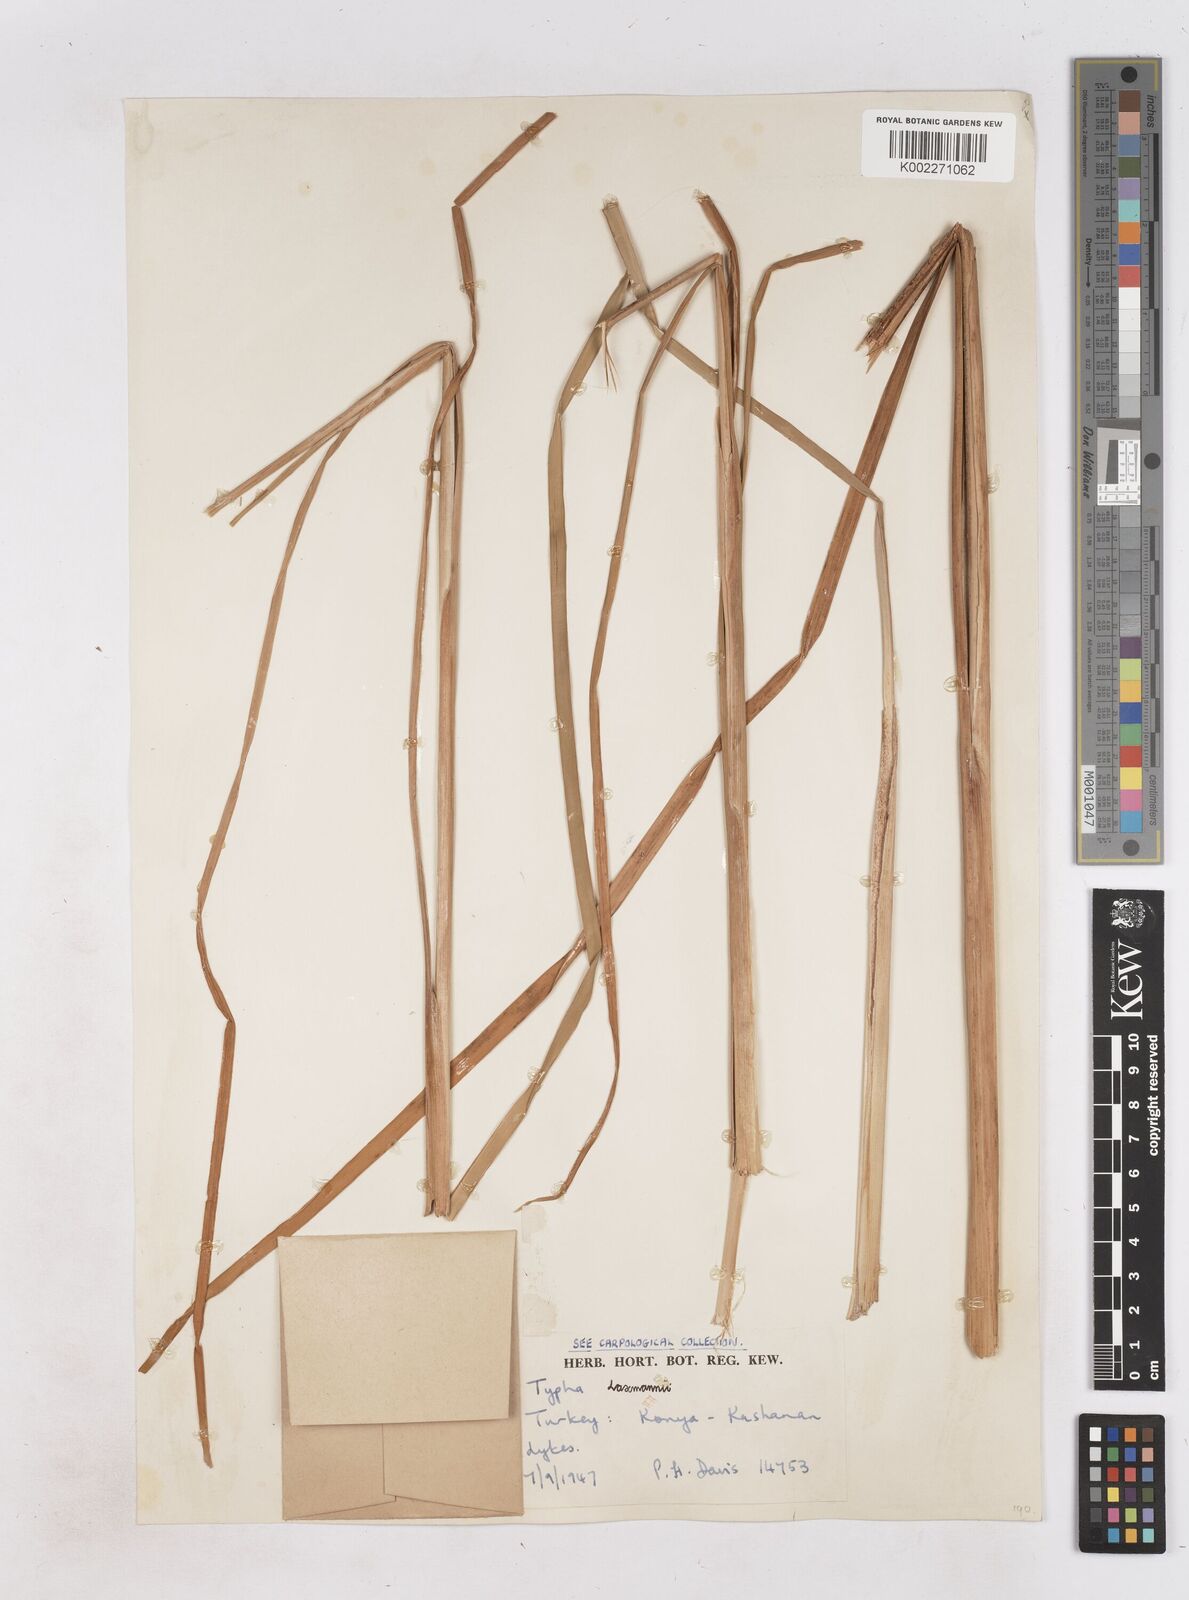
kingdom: Plantae
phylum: Tracheophyta
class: Liliopsida
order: Poales
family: Typhaceae
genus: Typha
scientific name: Typha laxmannii
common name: Laxman’s bulrush
